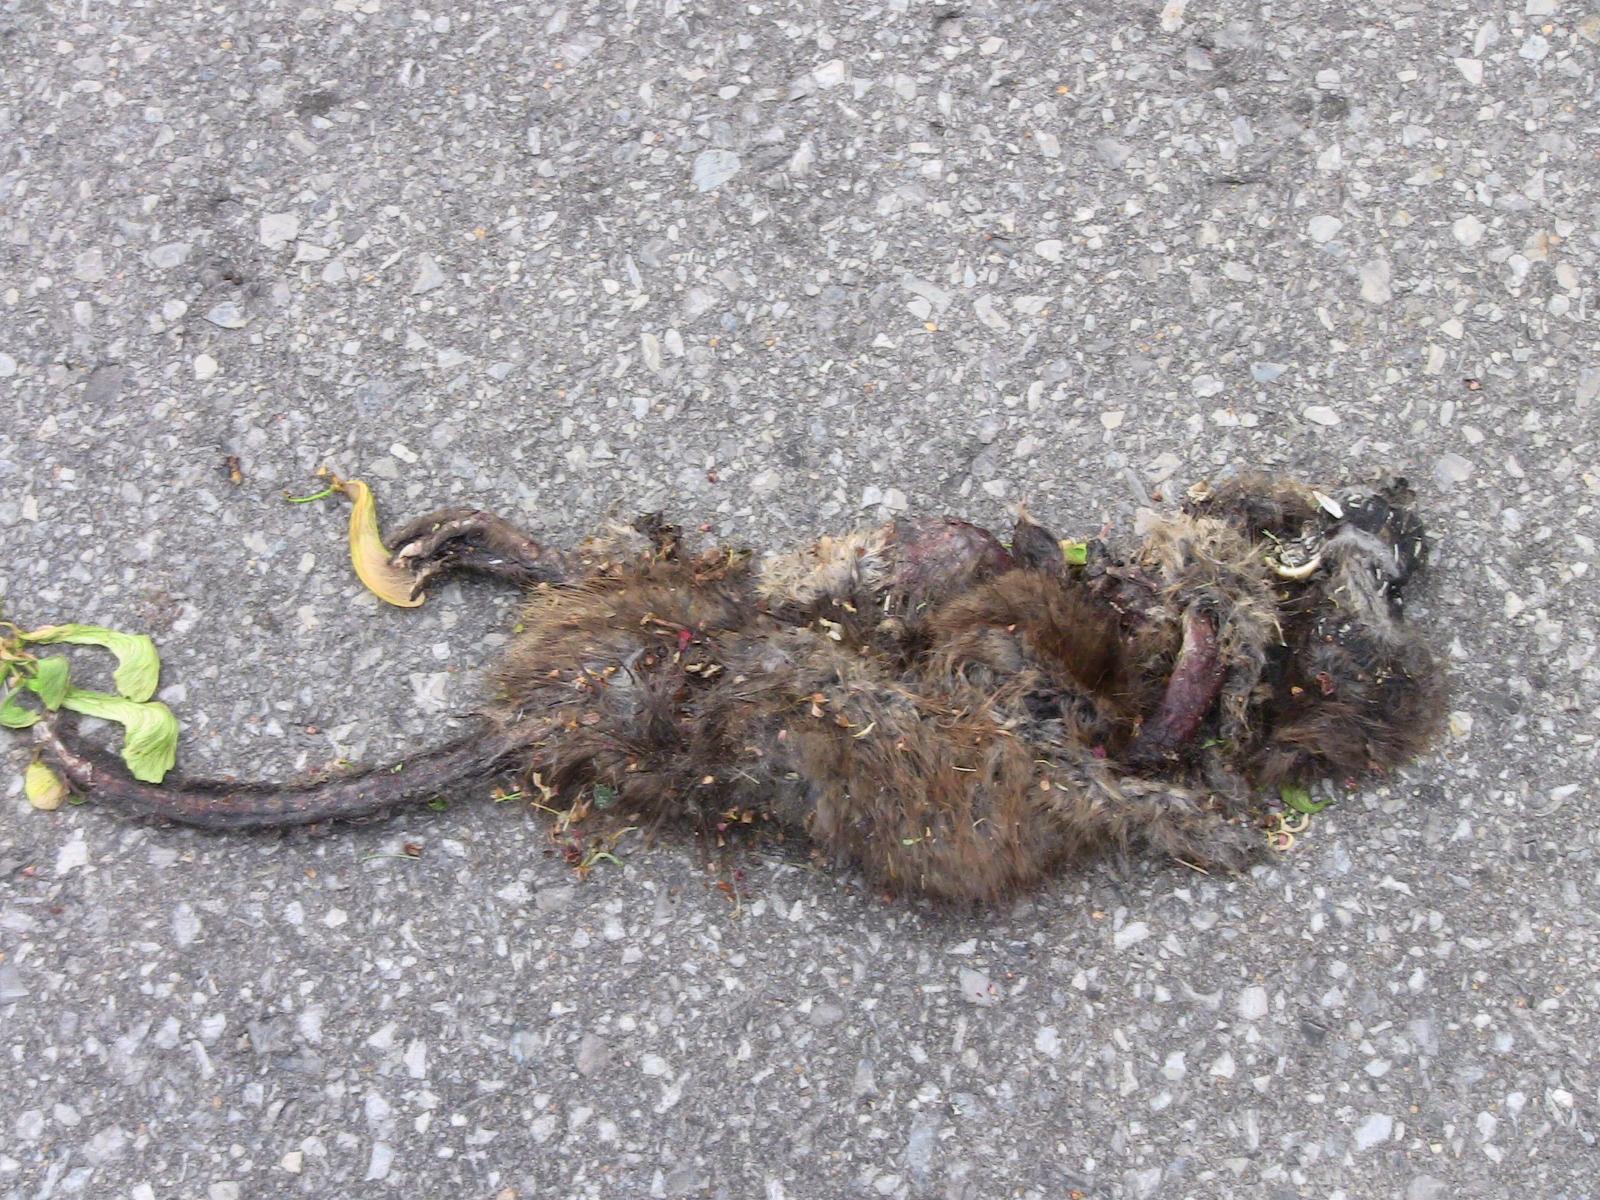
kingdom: Animalia
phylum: Chordata
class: Mammalia
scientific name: Mammalia
